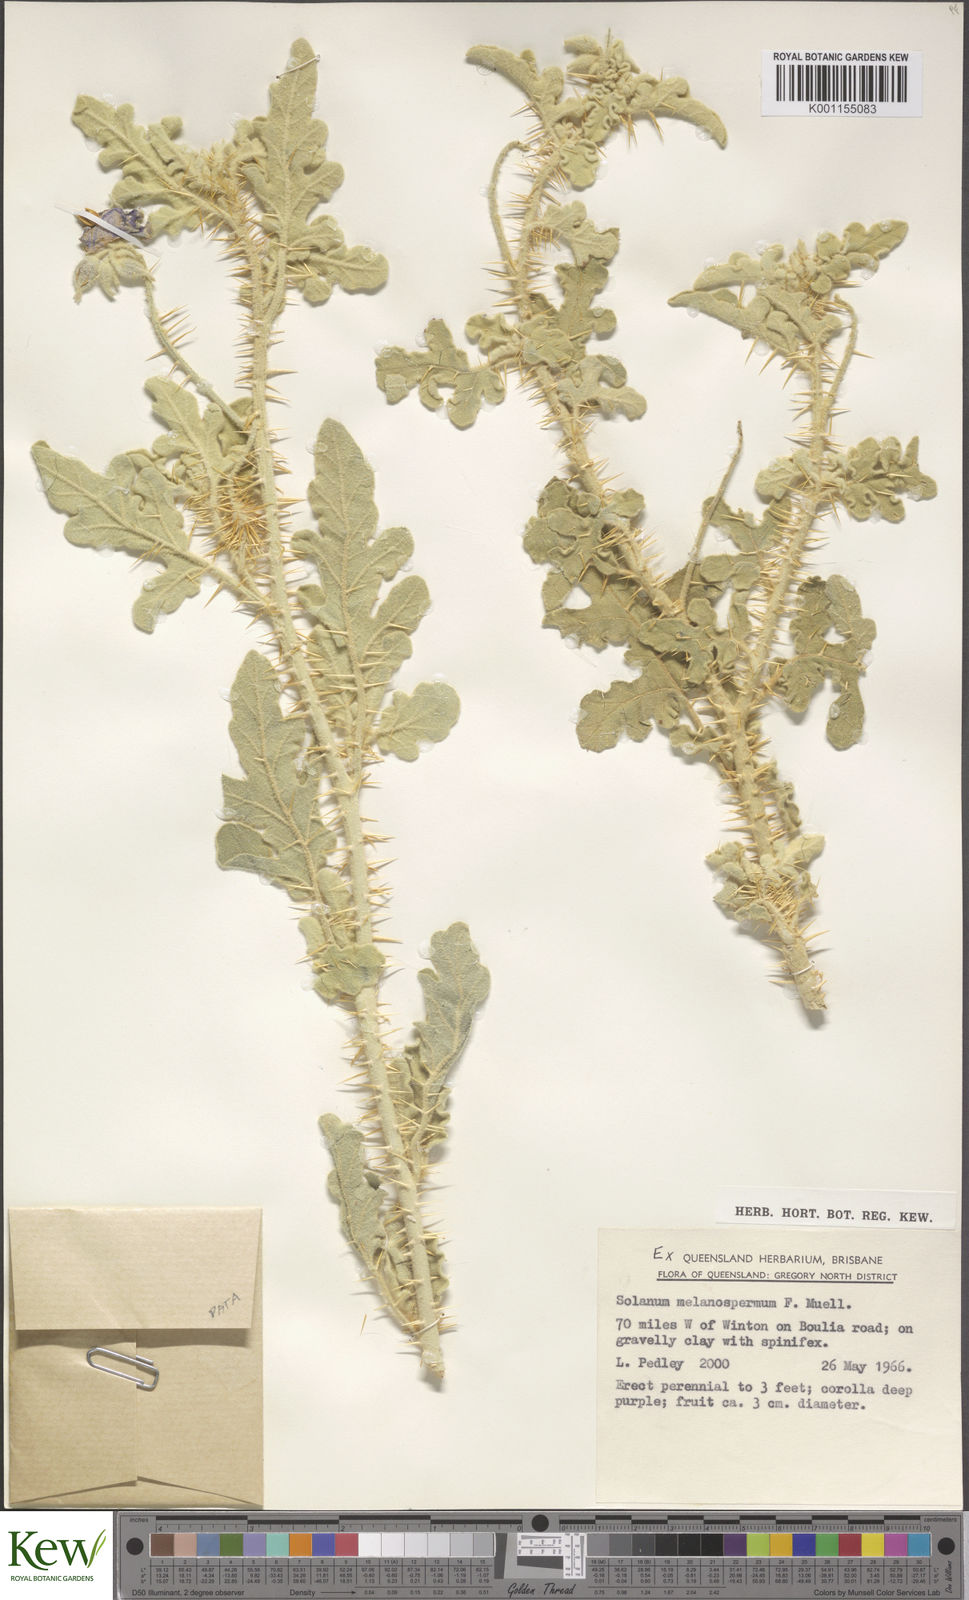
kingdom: Plantae
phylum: Tracheophyta
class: Magnoliopsida
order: Solanales
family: Solanaceae
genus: Solanum
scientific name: Solanum chippendalei
